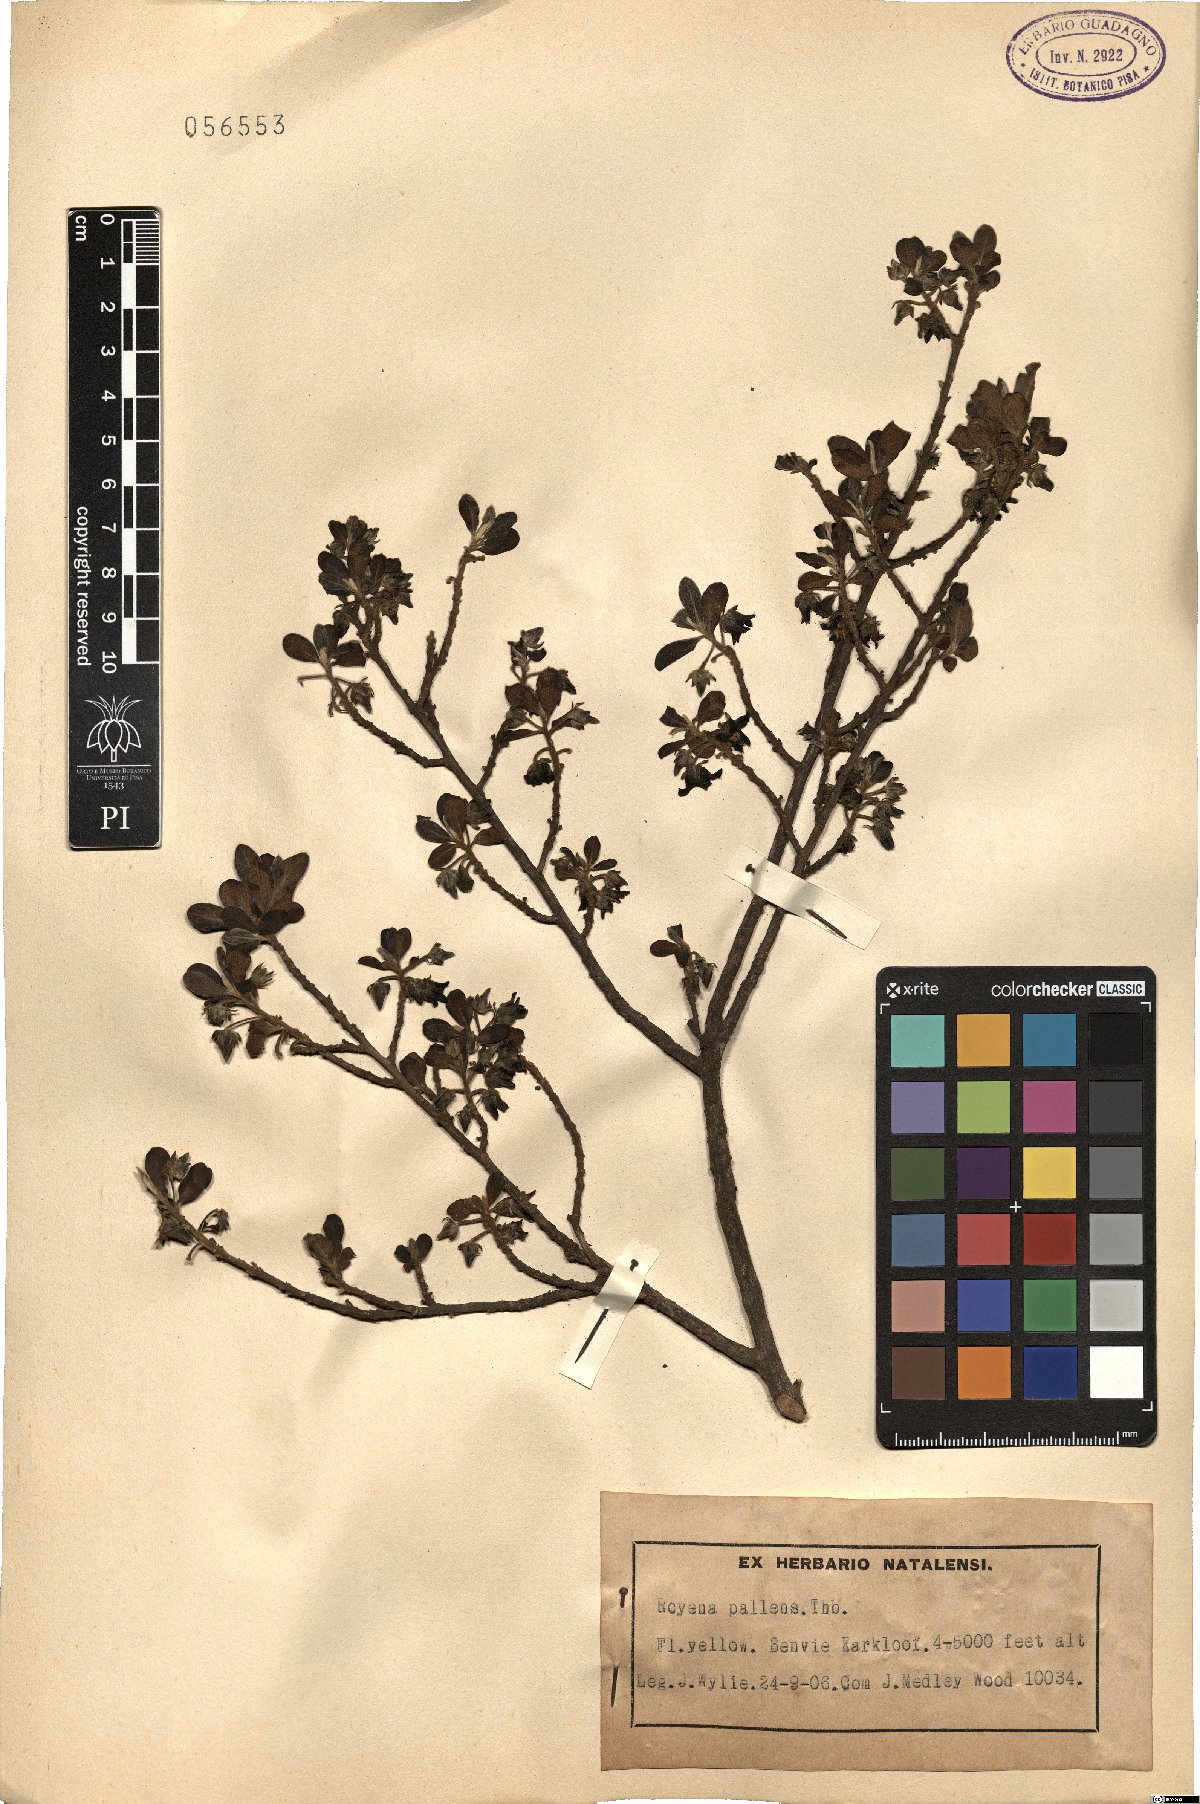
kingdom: Plantae
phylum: Tracheophyta
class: Magnoliopsida
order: Ericales
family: Ebenaceae
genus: Diospyros
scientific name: Diospyros pallens
